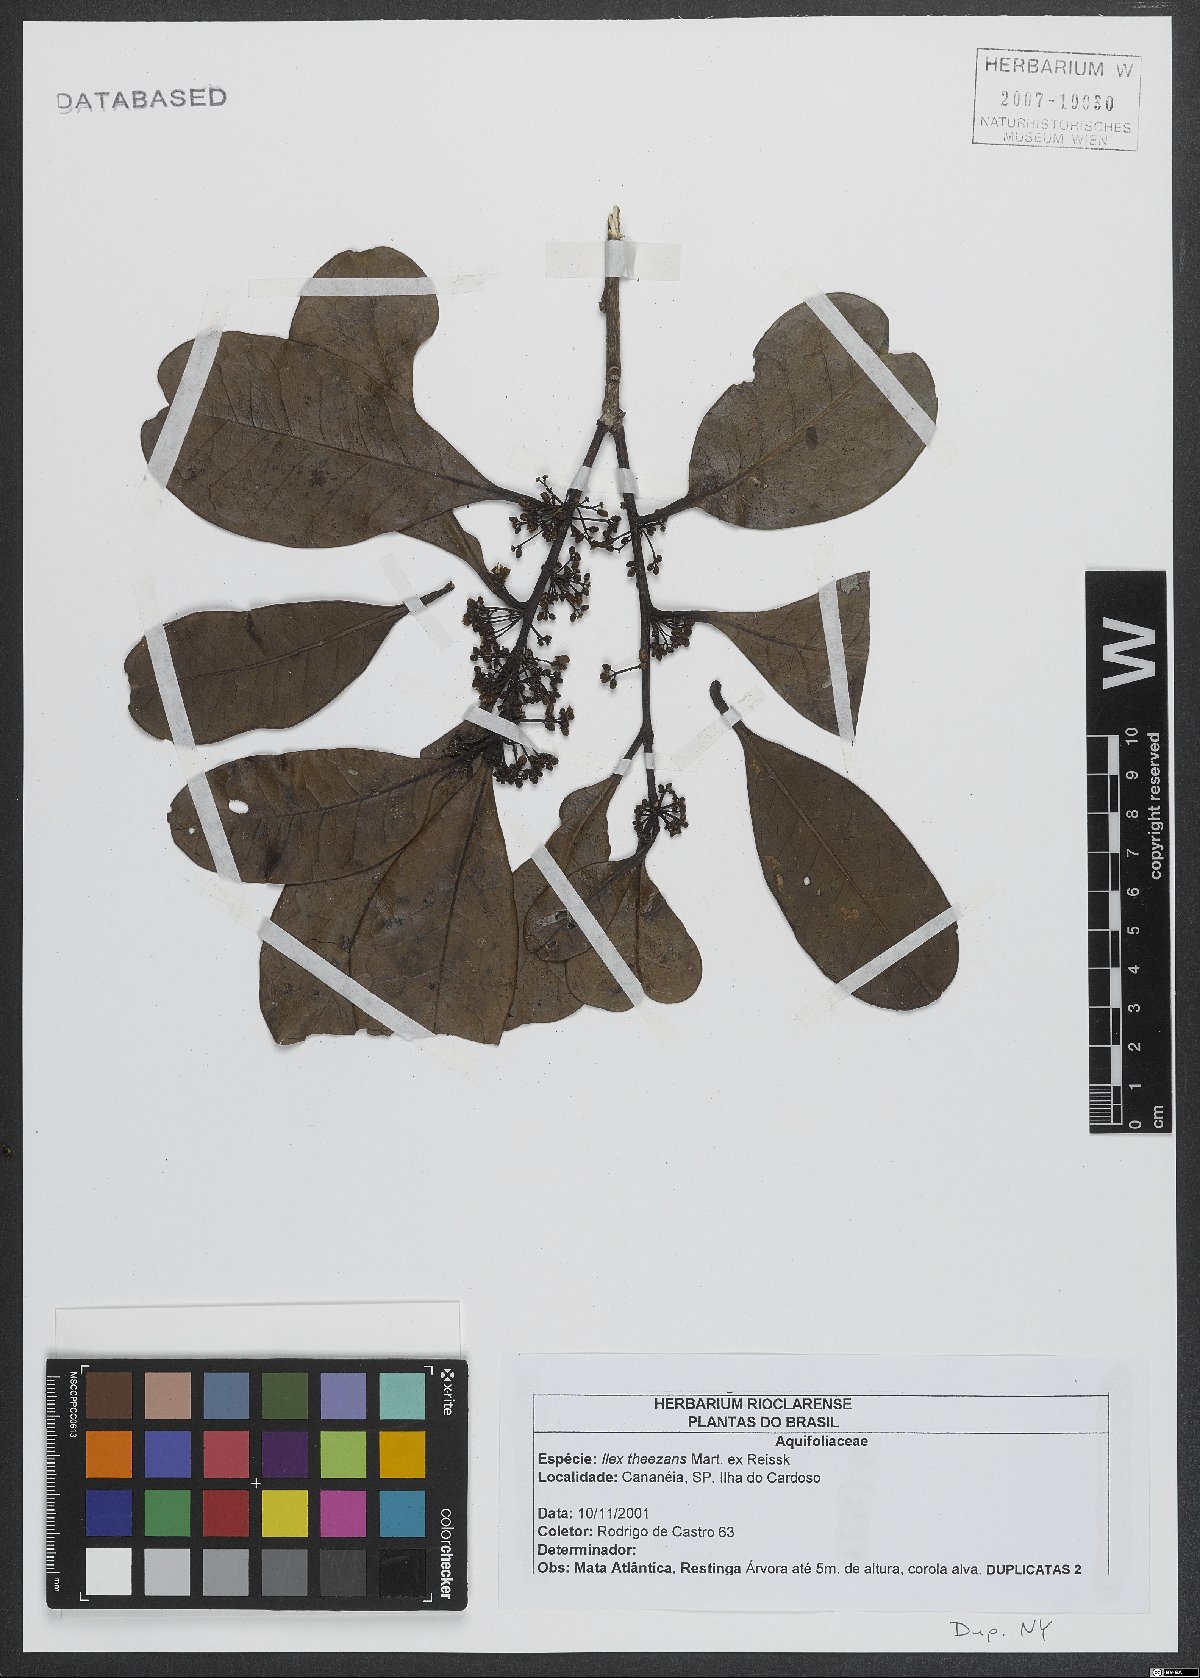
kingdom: Plantae
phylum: Tracheophyta
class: Magnoliopsida
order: Aquifoliales
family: Aquifoliaceae
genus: Ilex
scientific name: Ilex theezans
